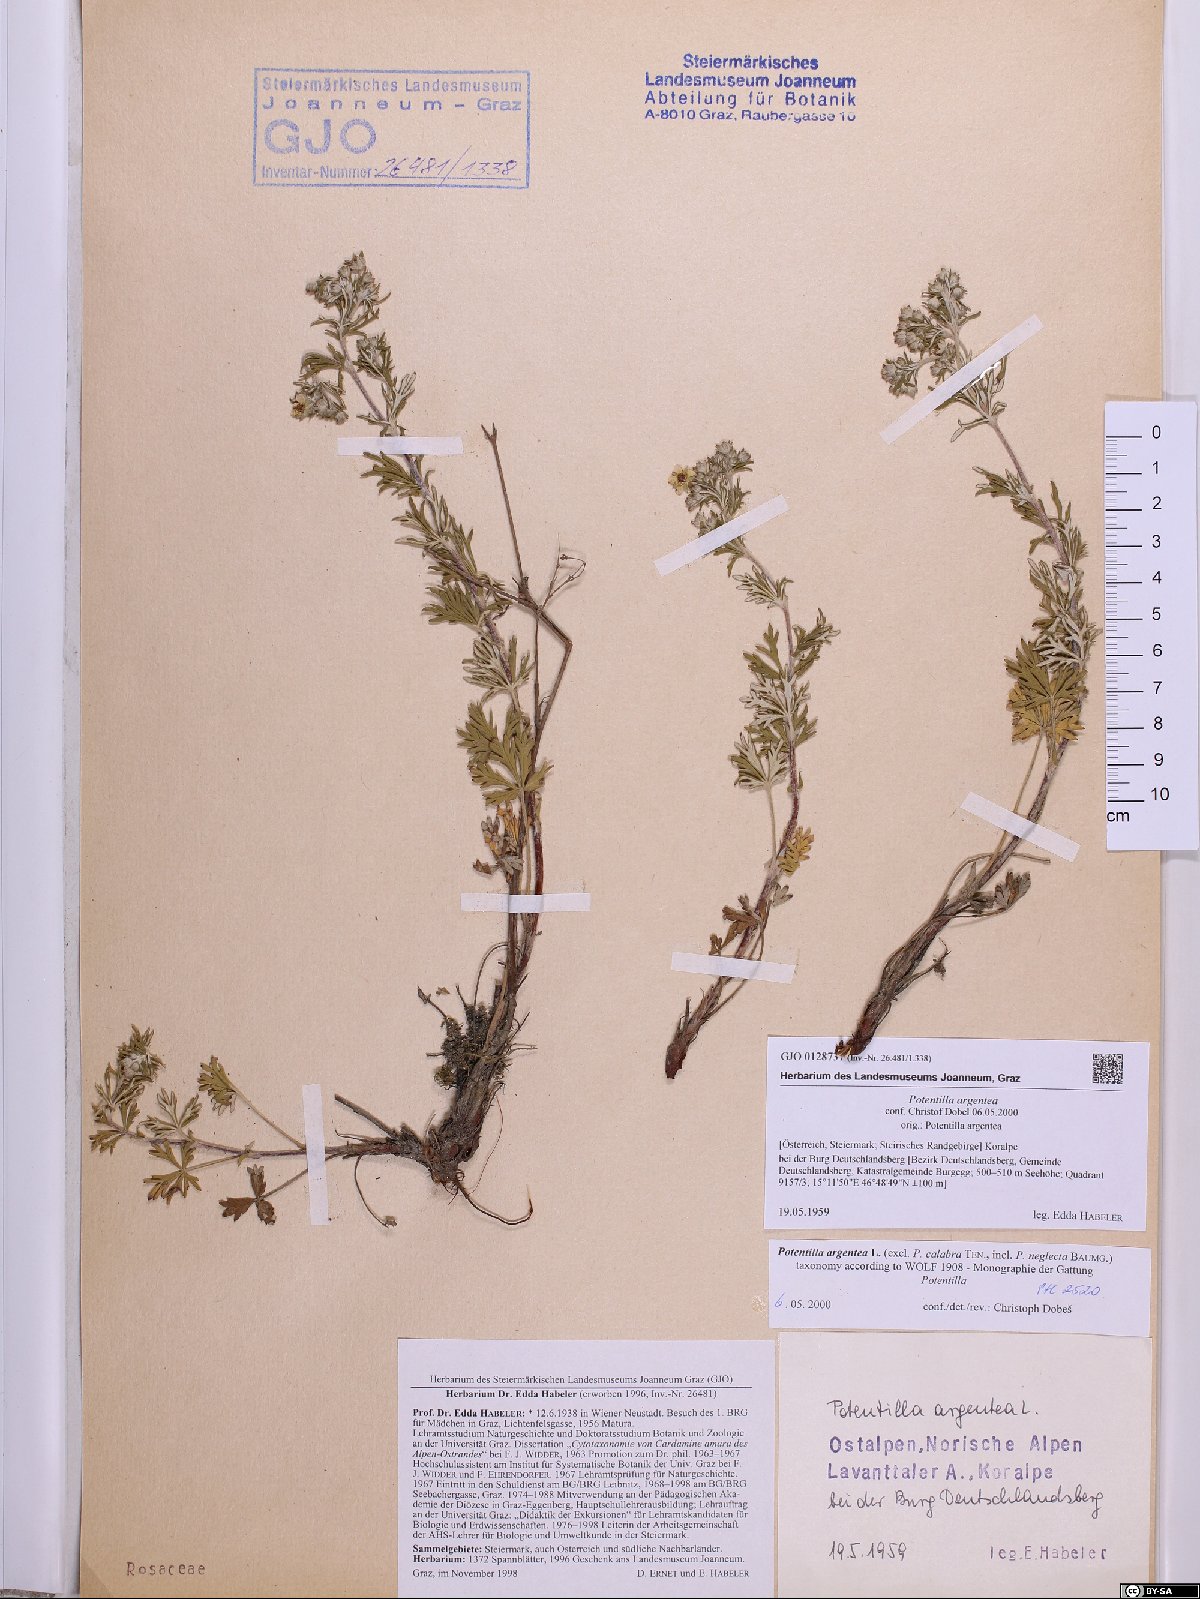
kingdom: Plantae
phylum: Tracheophyta
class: Magnoliopsida
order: Rosales
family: Rosaceae
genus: Potentilla
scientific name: Potentilla argentea
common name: Hoary cinquefoil
